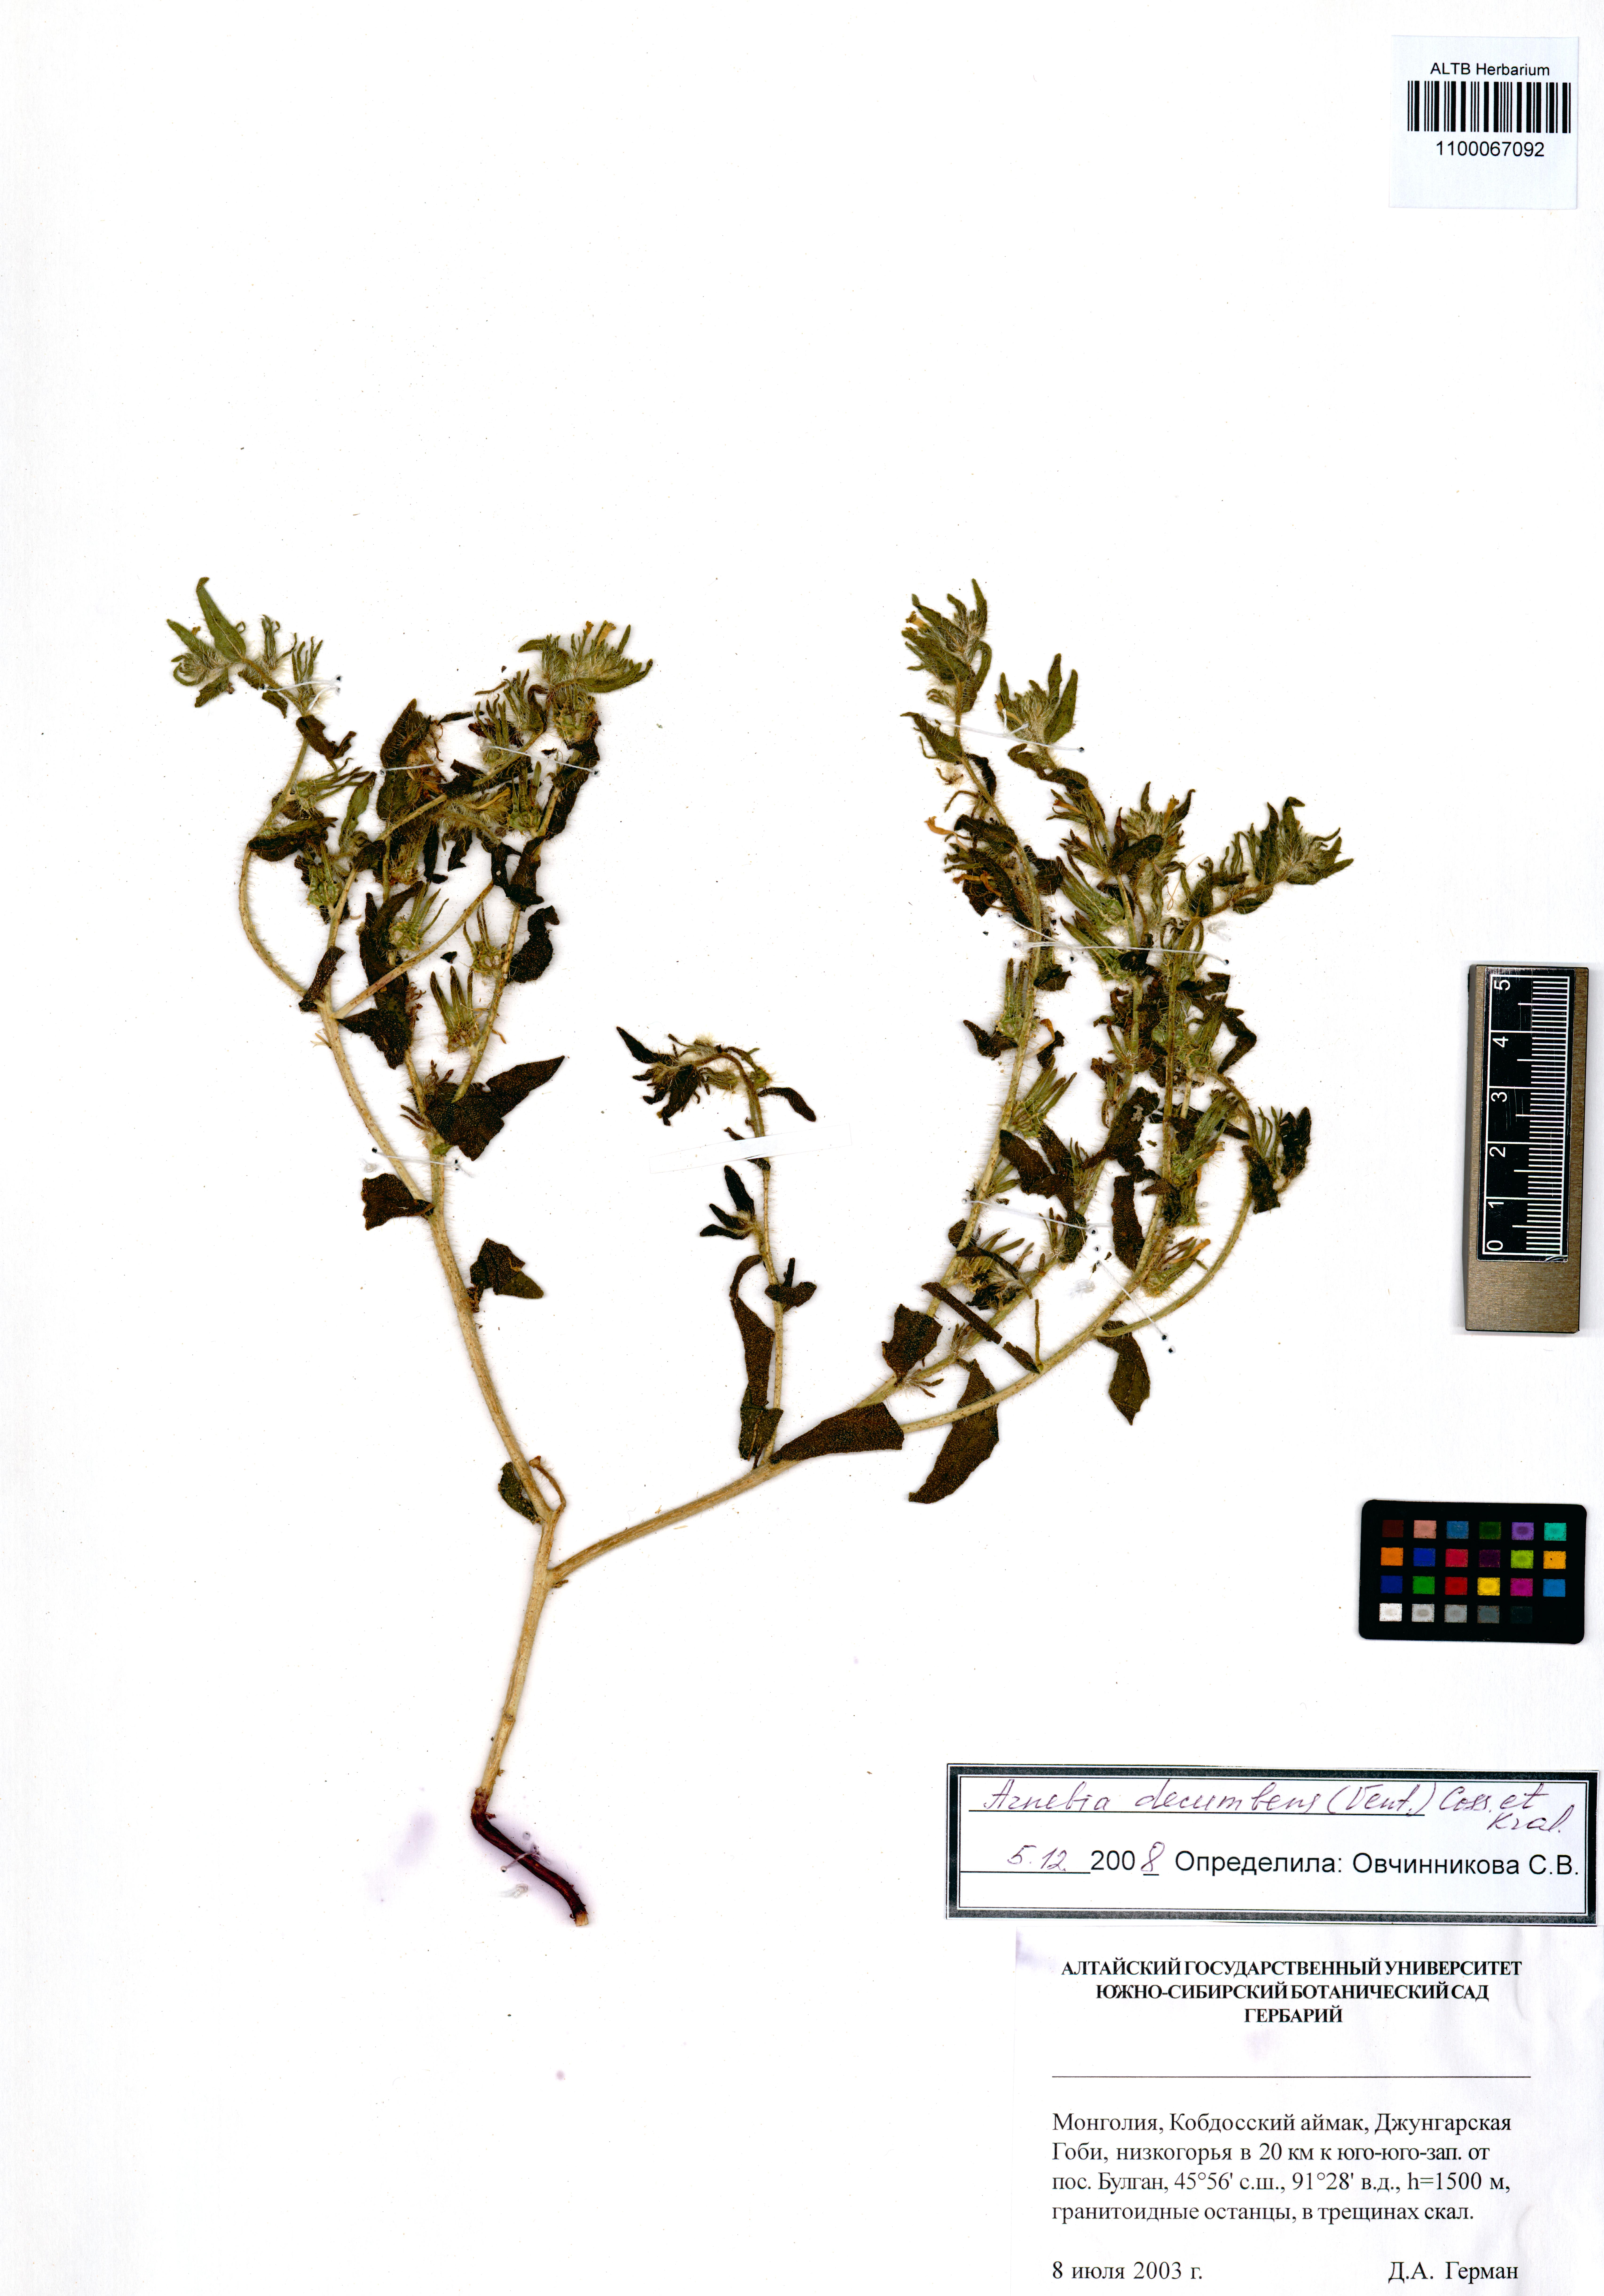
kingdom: Plantae
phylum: Tracheophyta
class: Magnoliopsida
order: Boraginales
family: Boraginaceae
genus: Arnebia
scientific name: Arnebia decumbens
